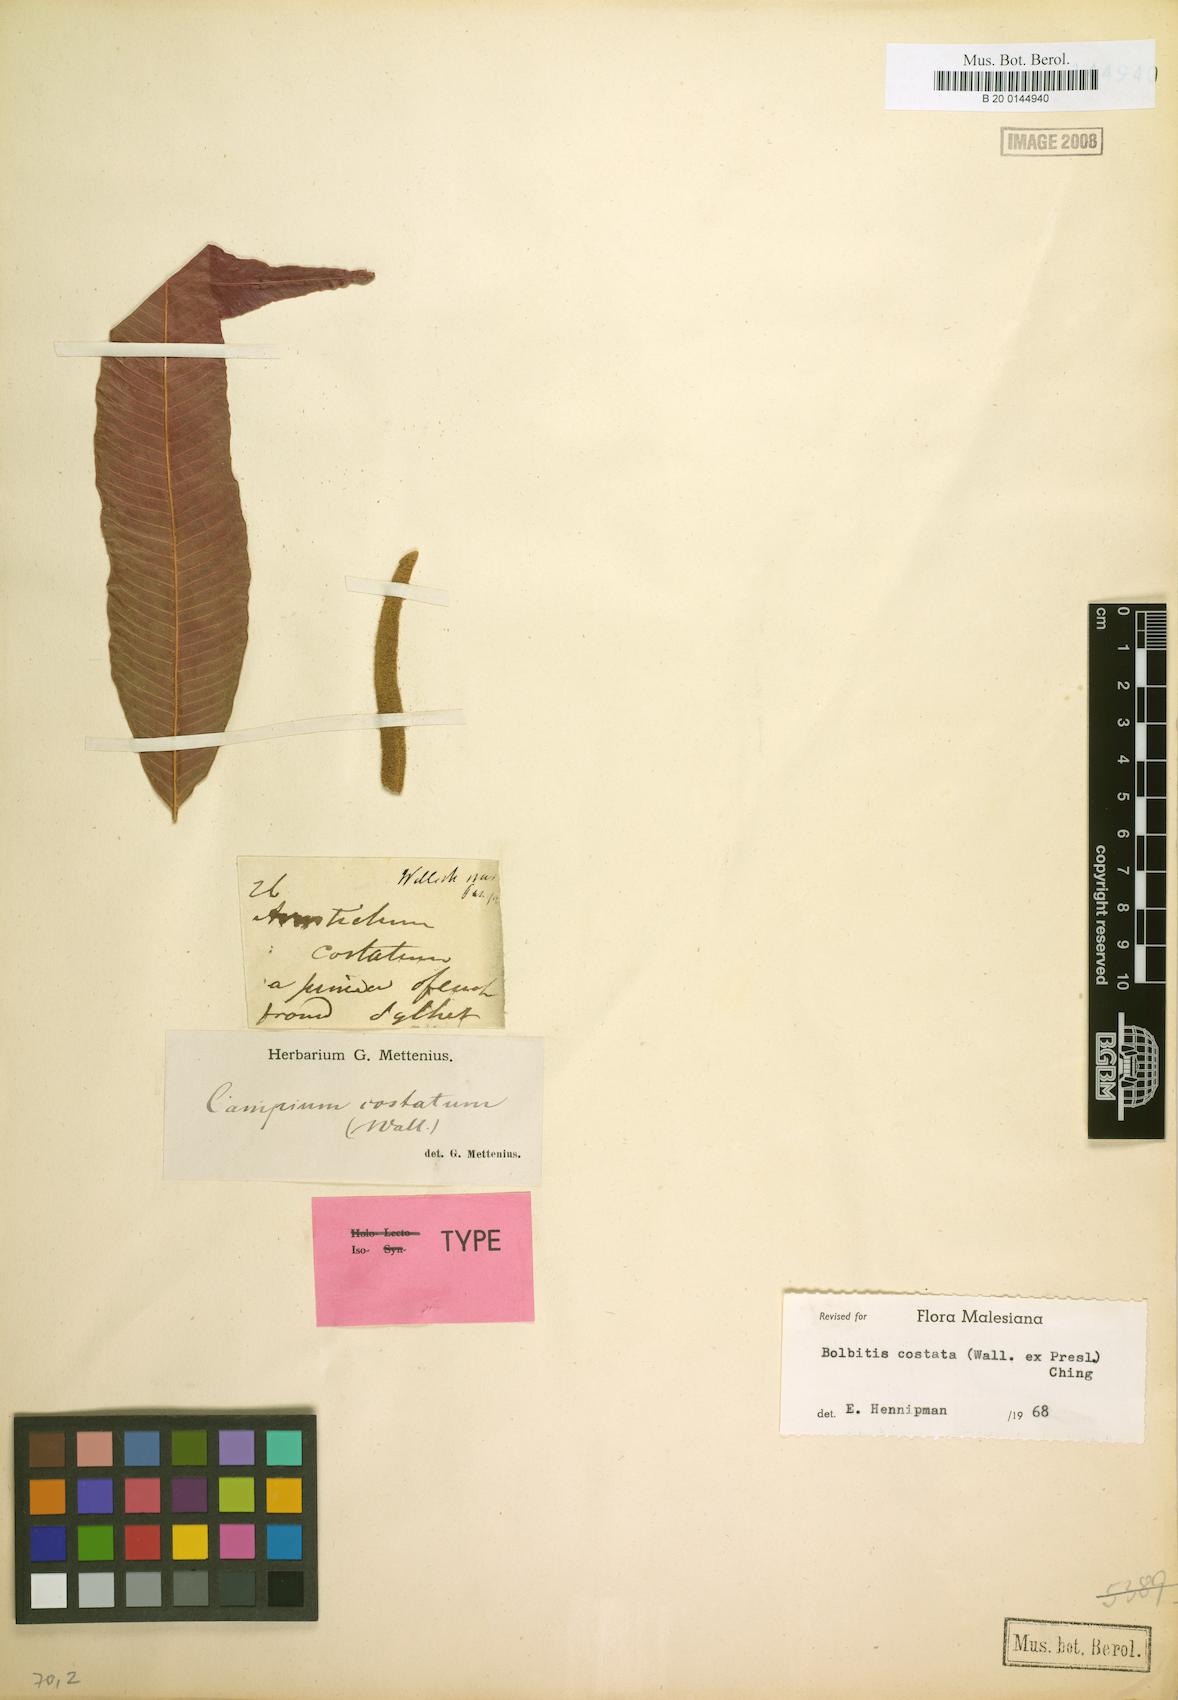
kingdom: Plantae
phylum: Tracheophyta
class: Polypodiopsida
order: Polypodiales
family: Dryopteridaceae
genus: Bolbitis
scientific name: Bolbitis costata
